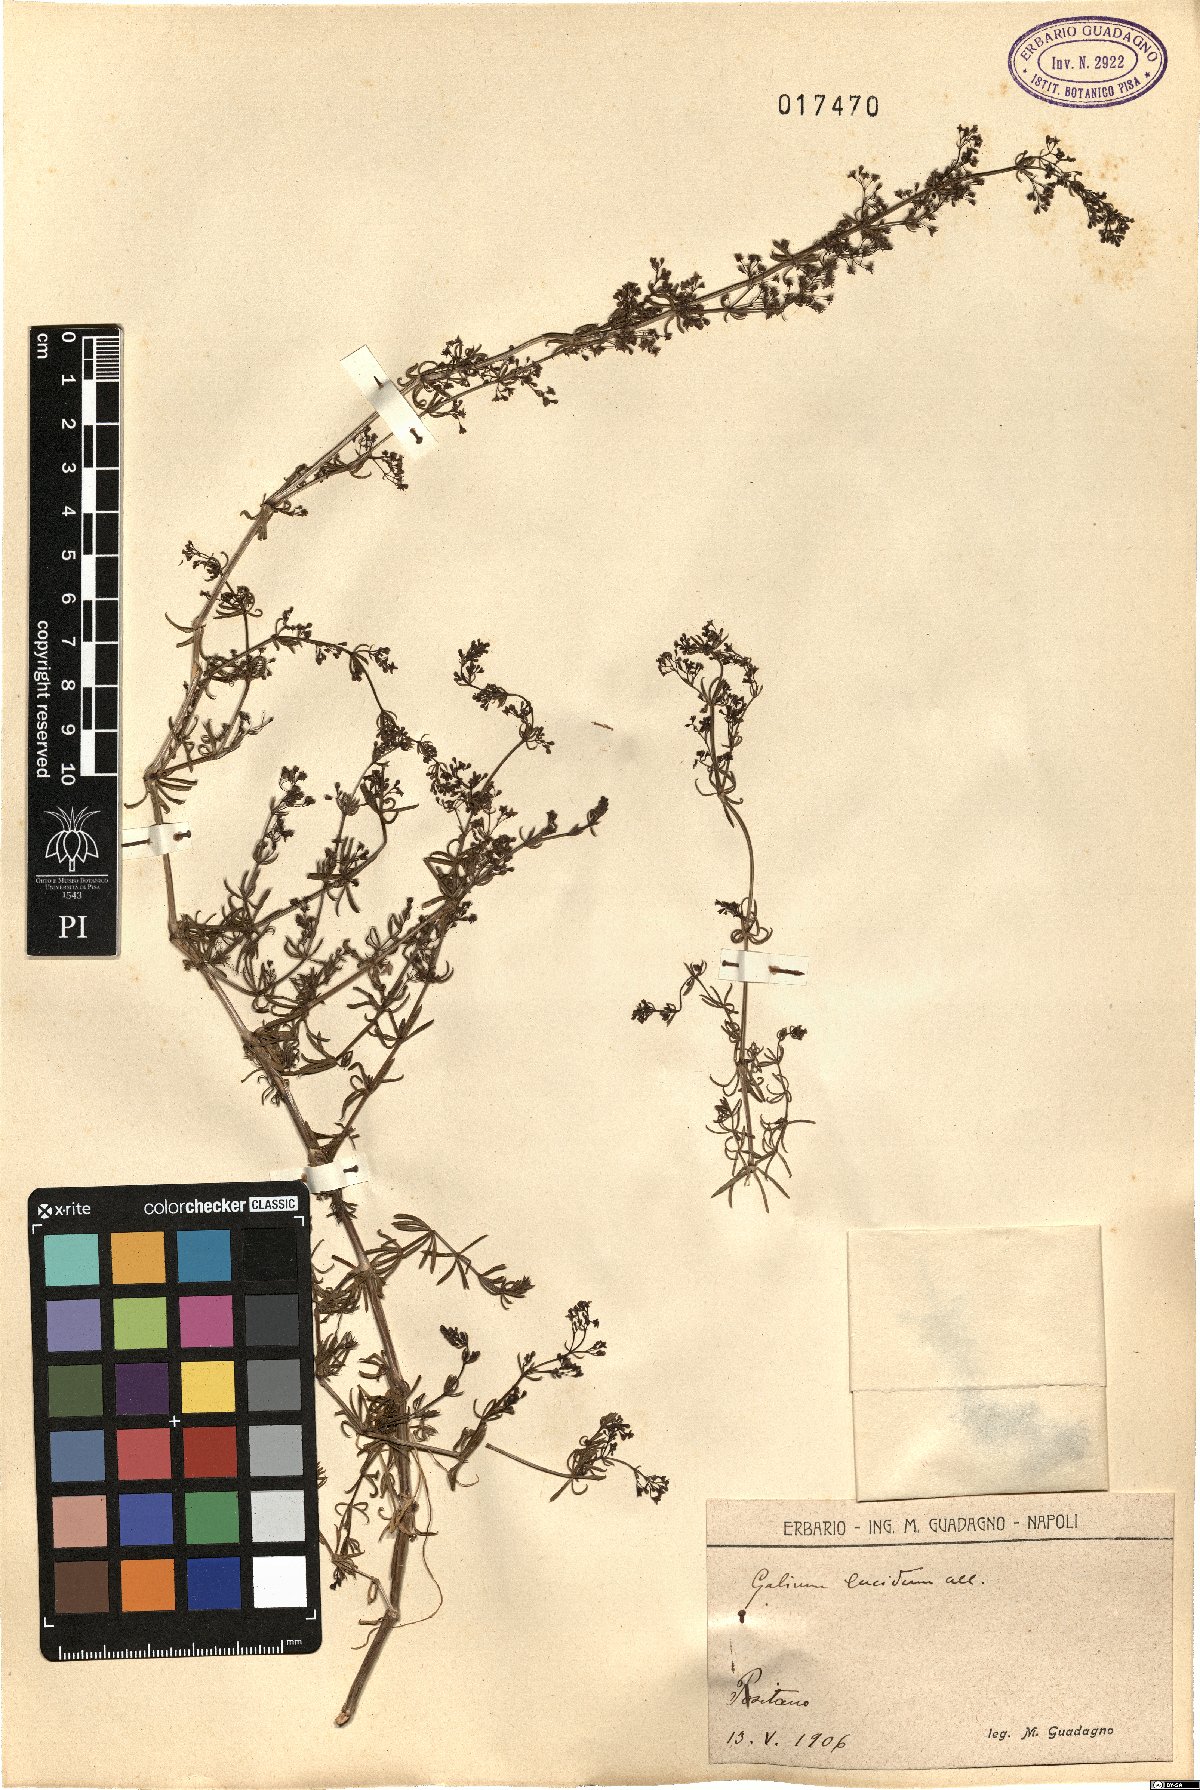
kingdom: Plantae
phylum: Tracheophyta
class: Magnoliopsida
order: Gentianales
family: Rubiaceae
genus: Galium
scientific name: Galium lucidum
